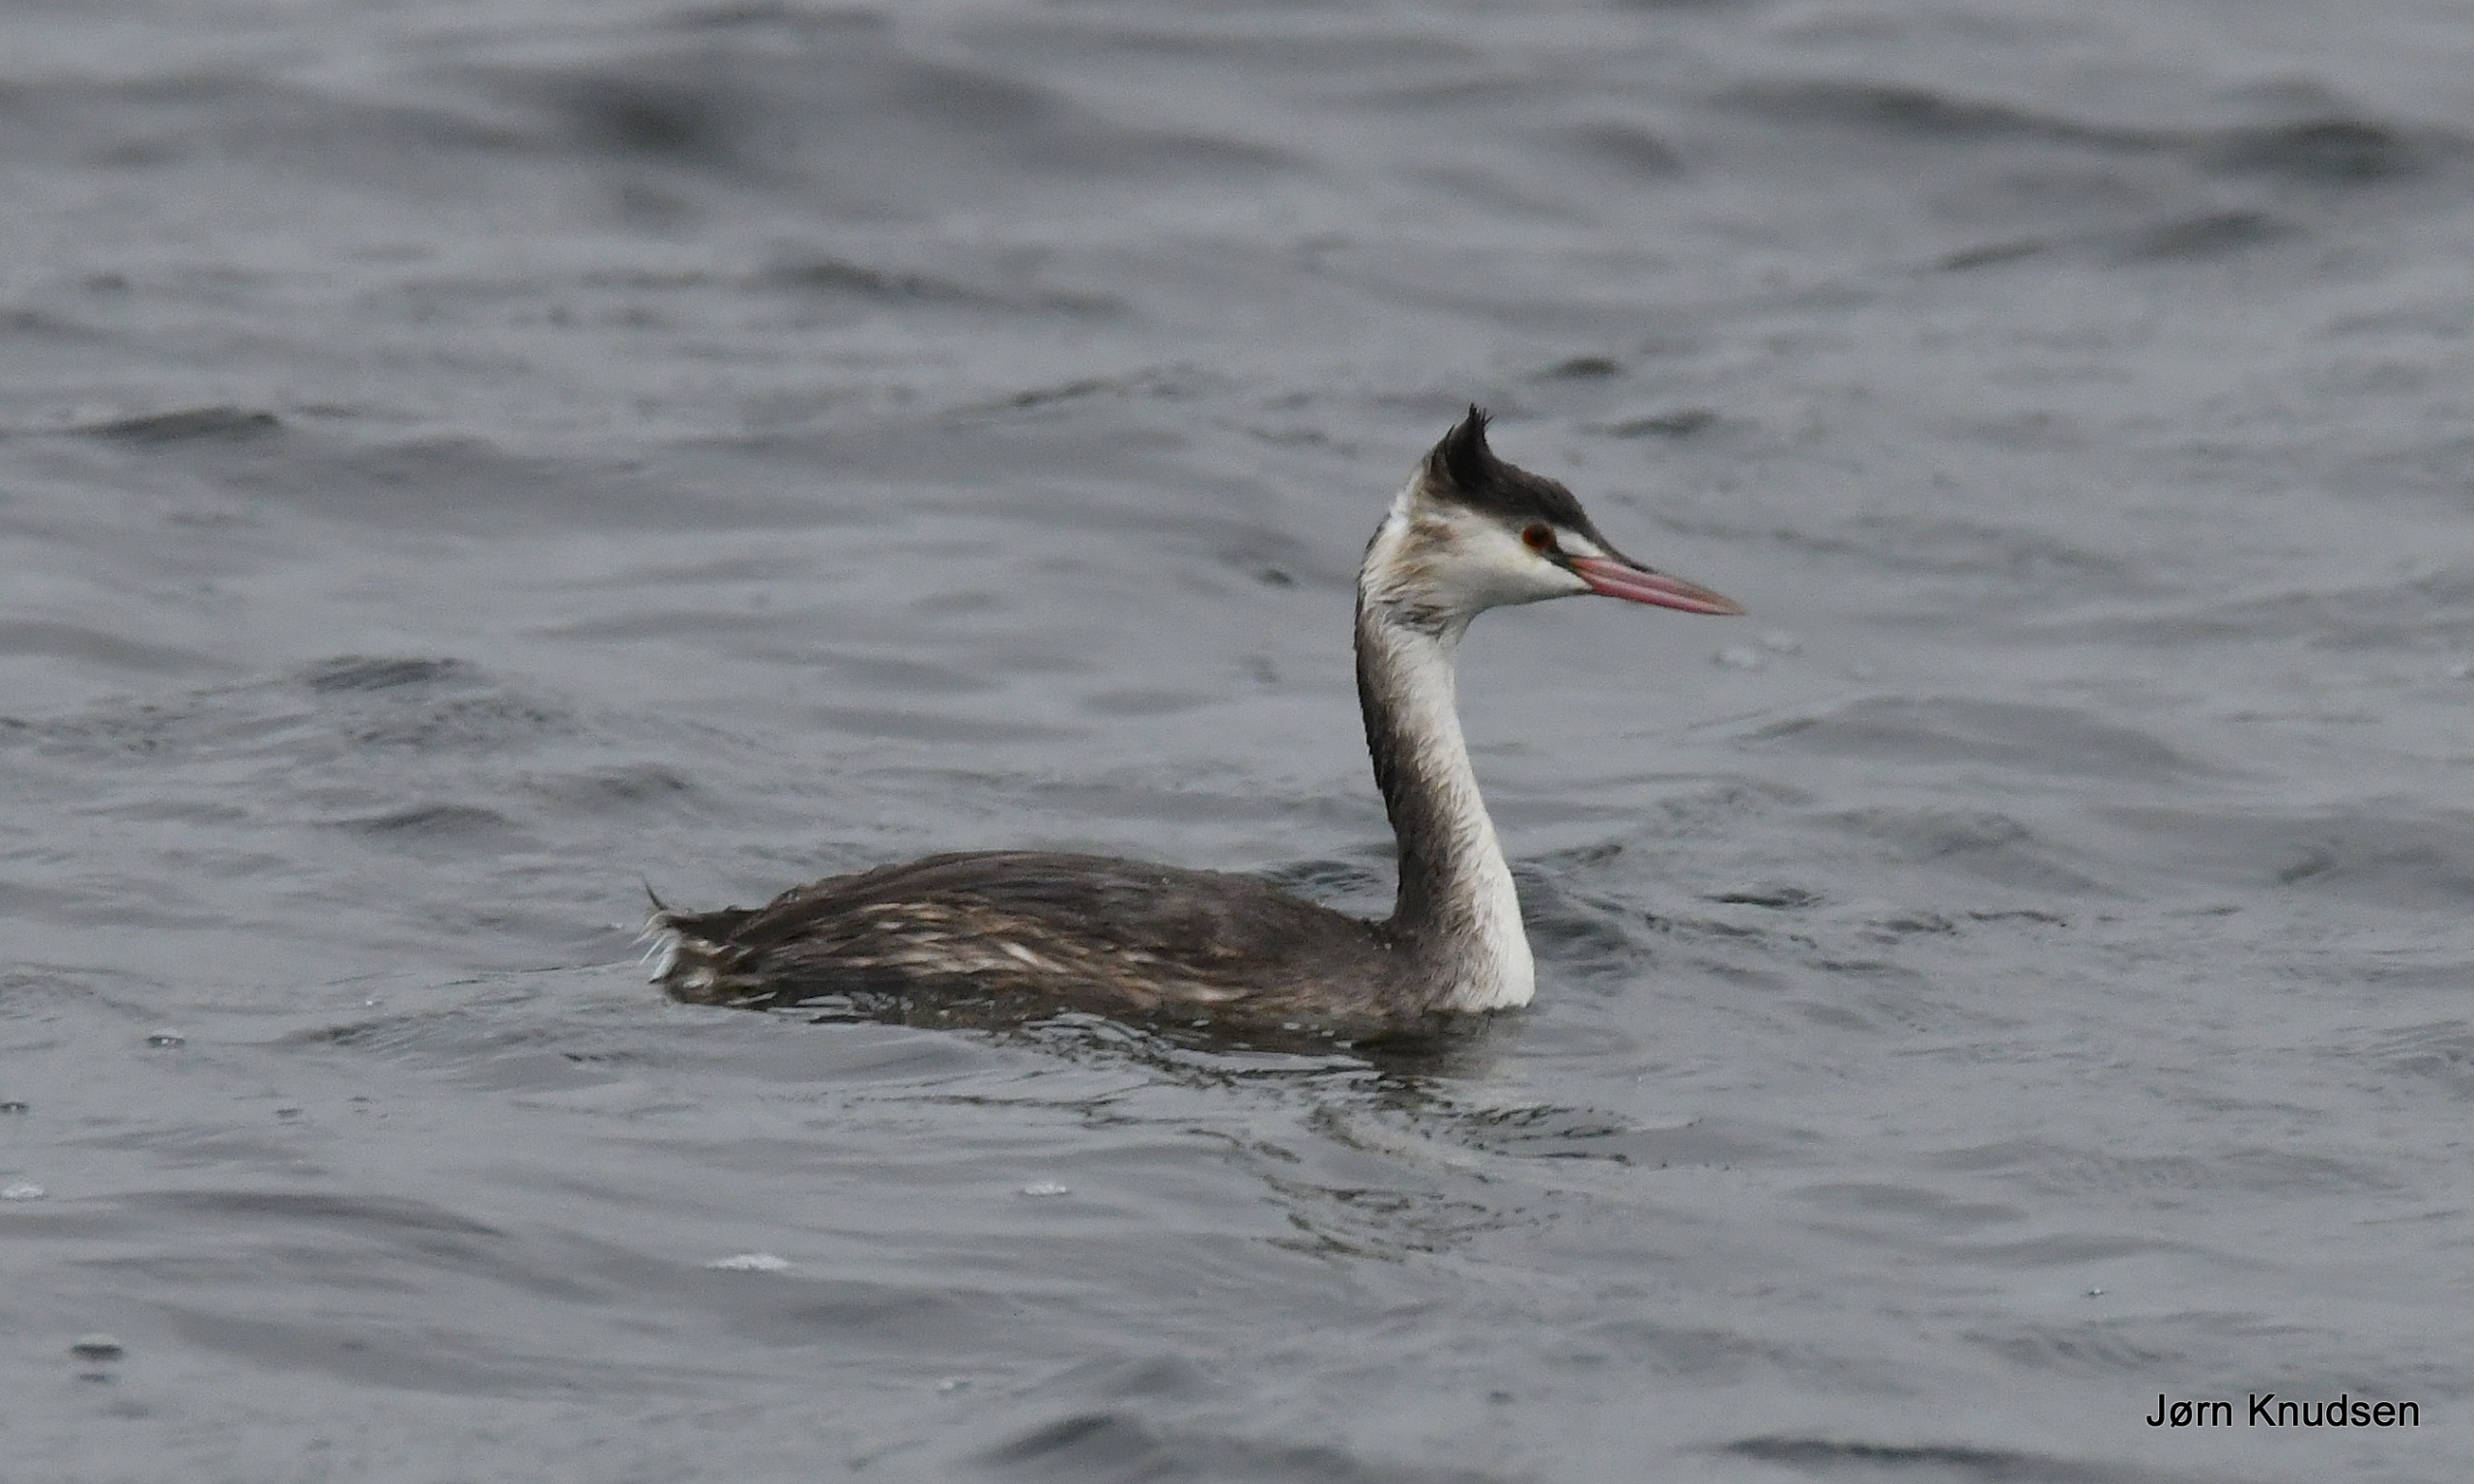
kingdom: Animalia
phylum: Chordata
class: Aves
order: Podicipediformes
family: Podicipedidae
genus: Podiceps
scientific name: Podiceps cristatus
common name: Toppet lappedykker
